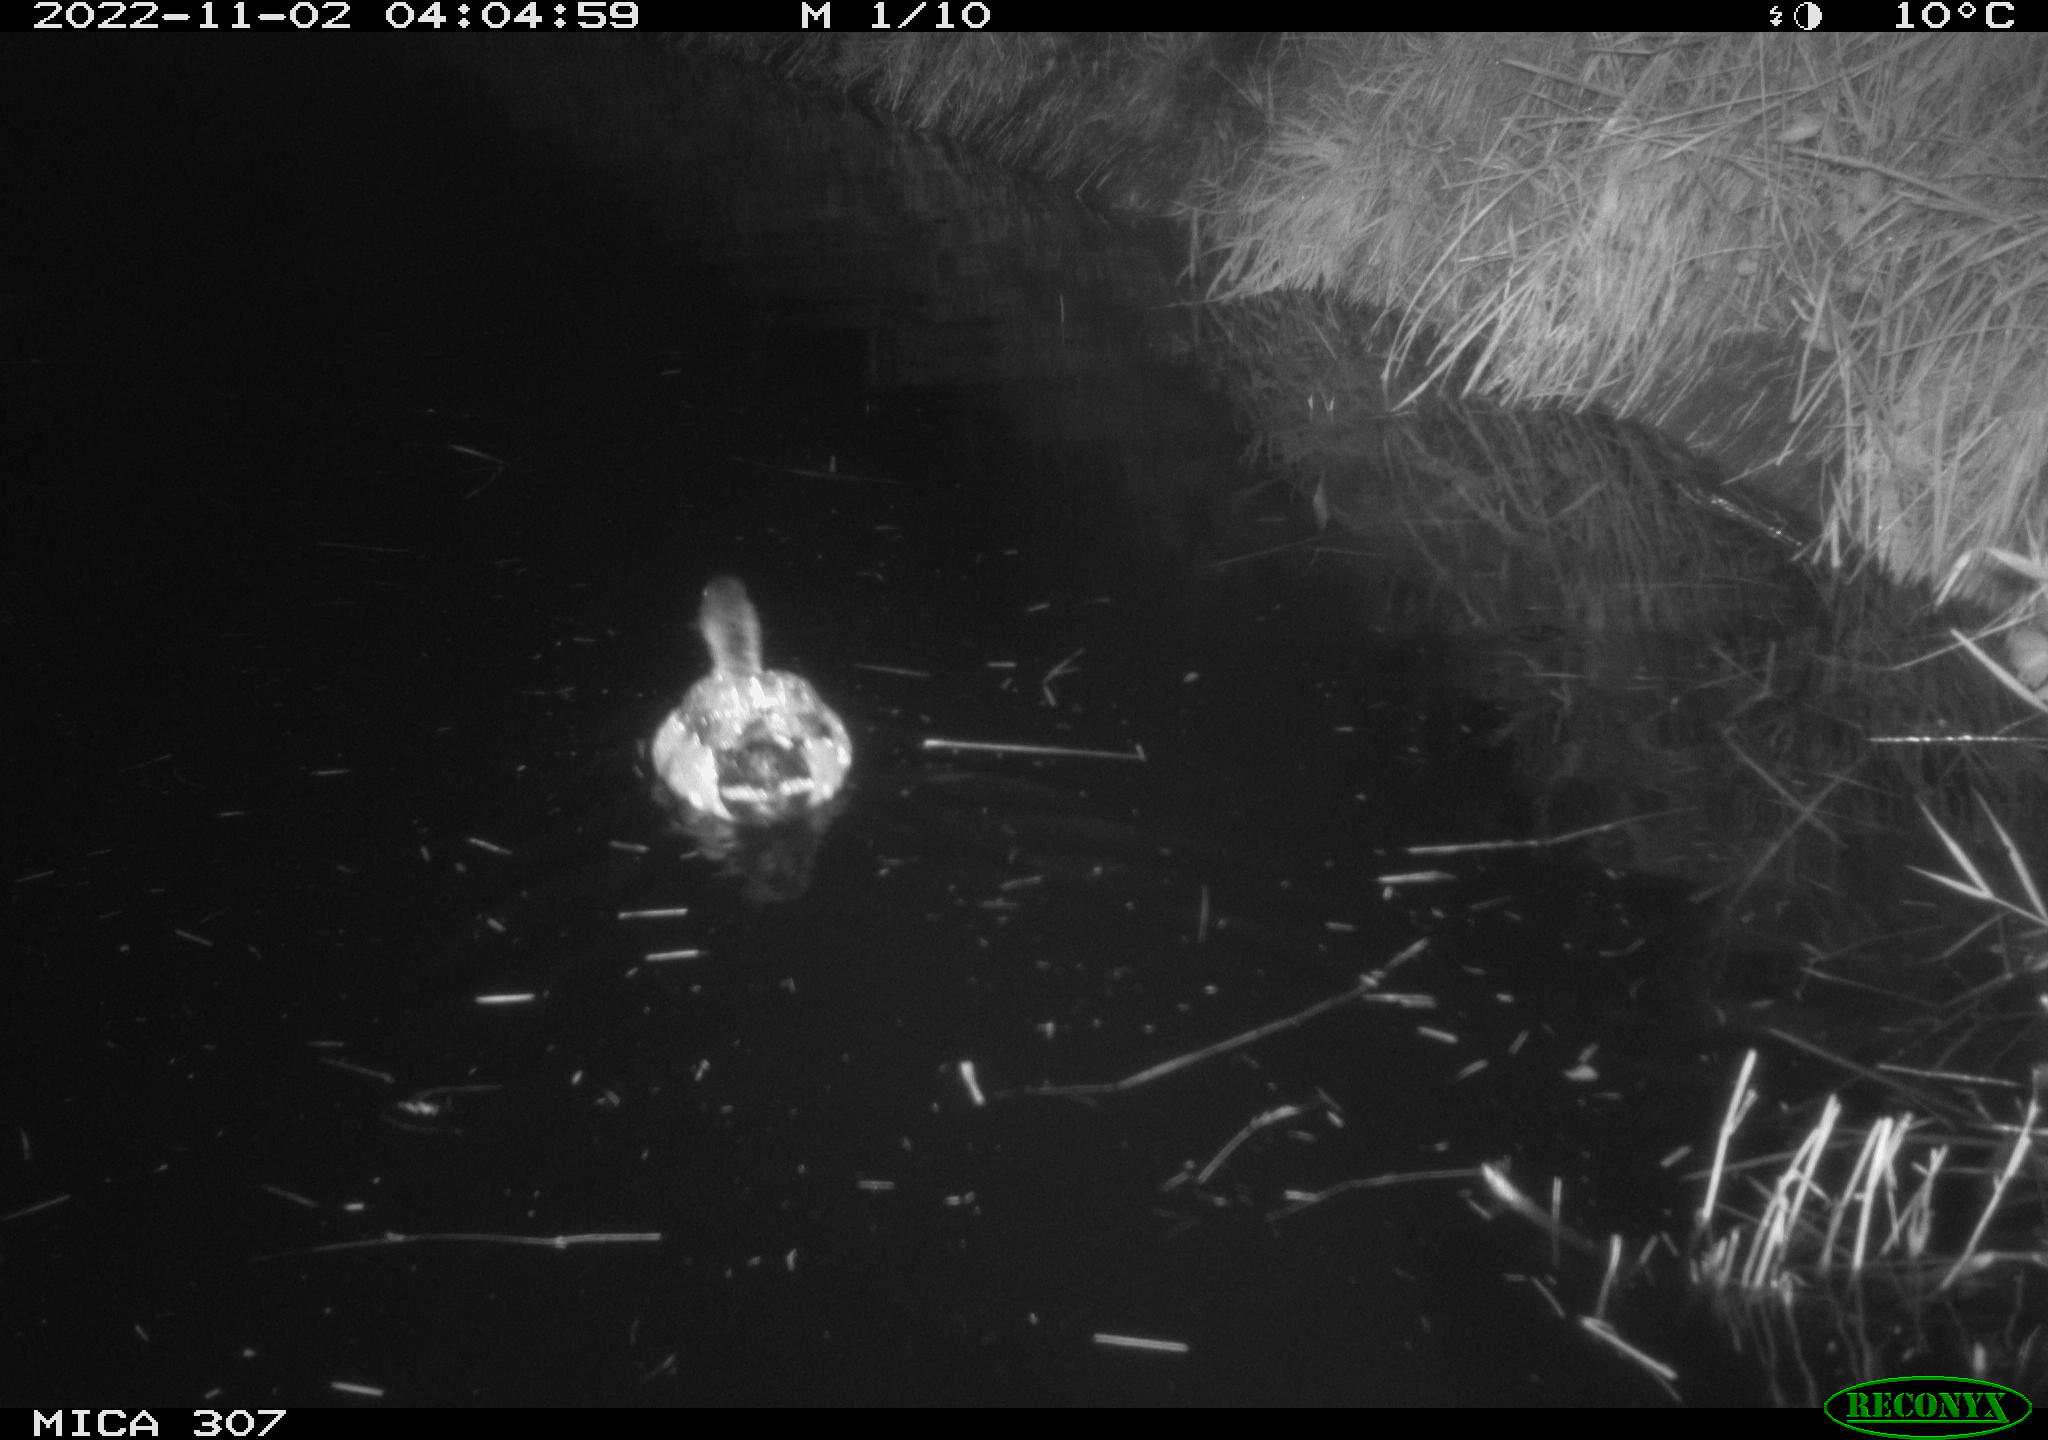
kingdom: Animalia
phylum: Chordata
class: Aves
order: Anseriformes
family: Anatidae
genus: Anas
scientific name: Anas
